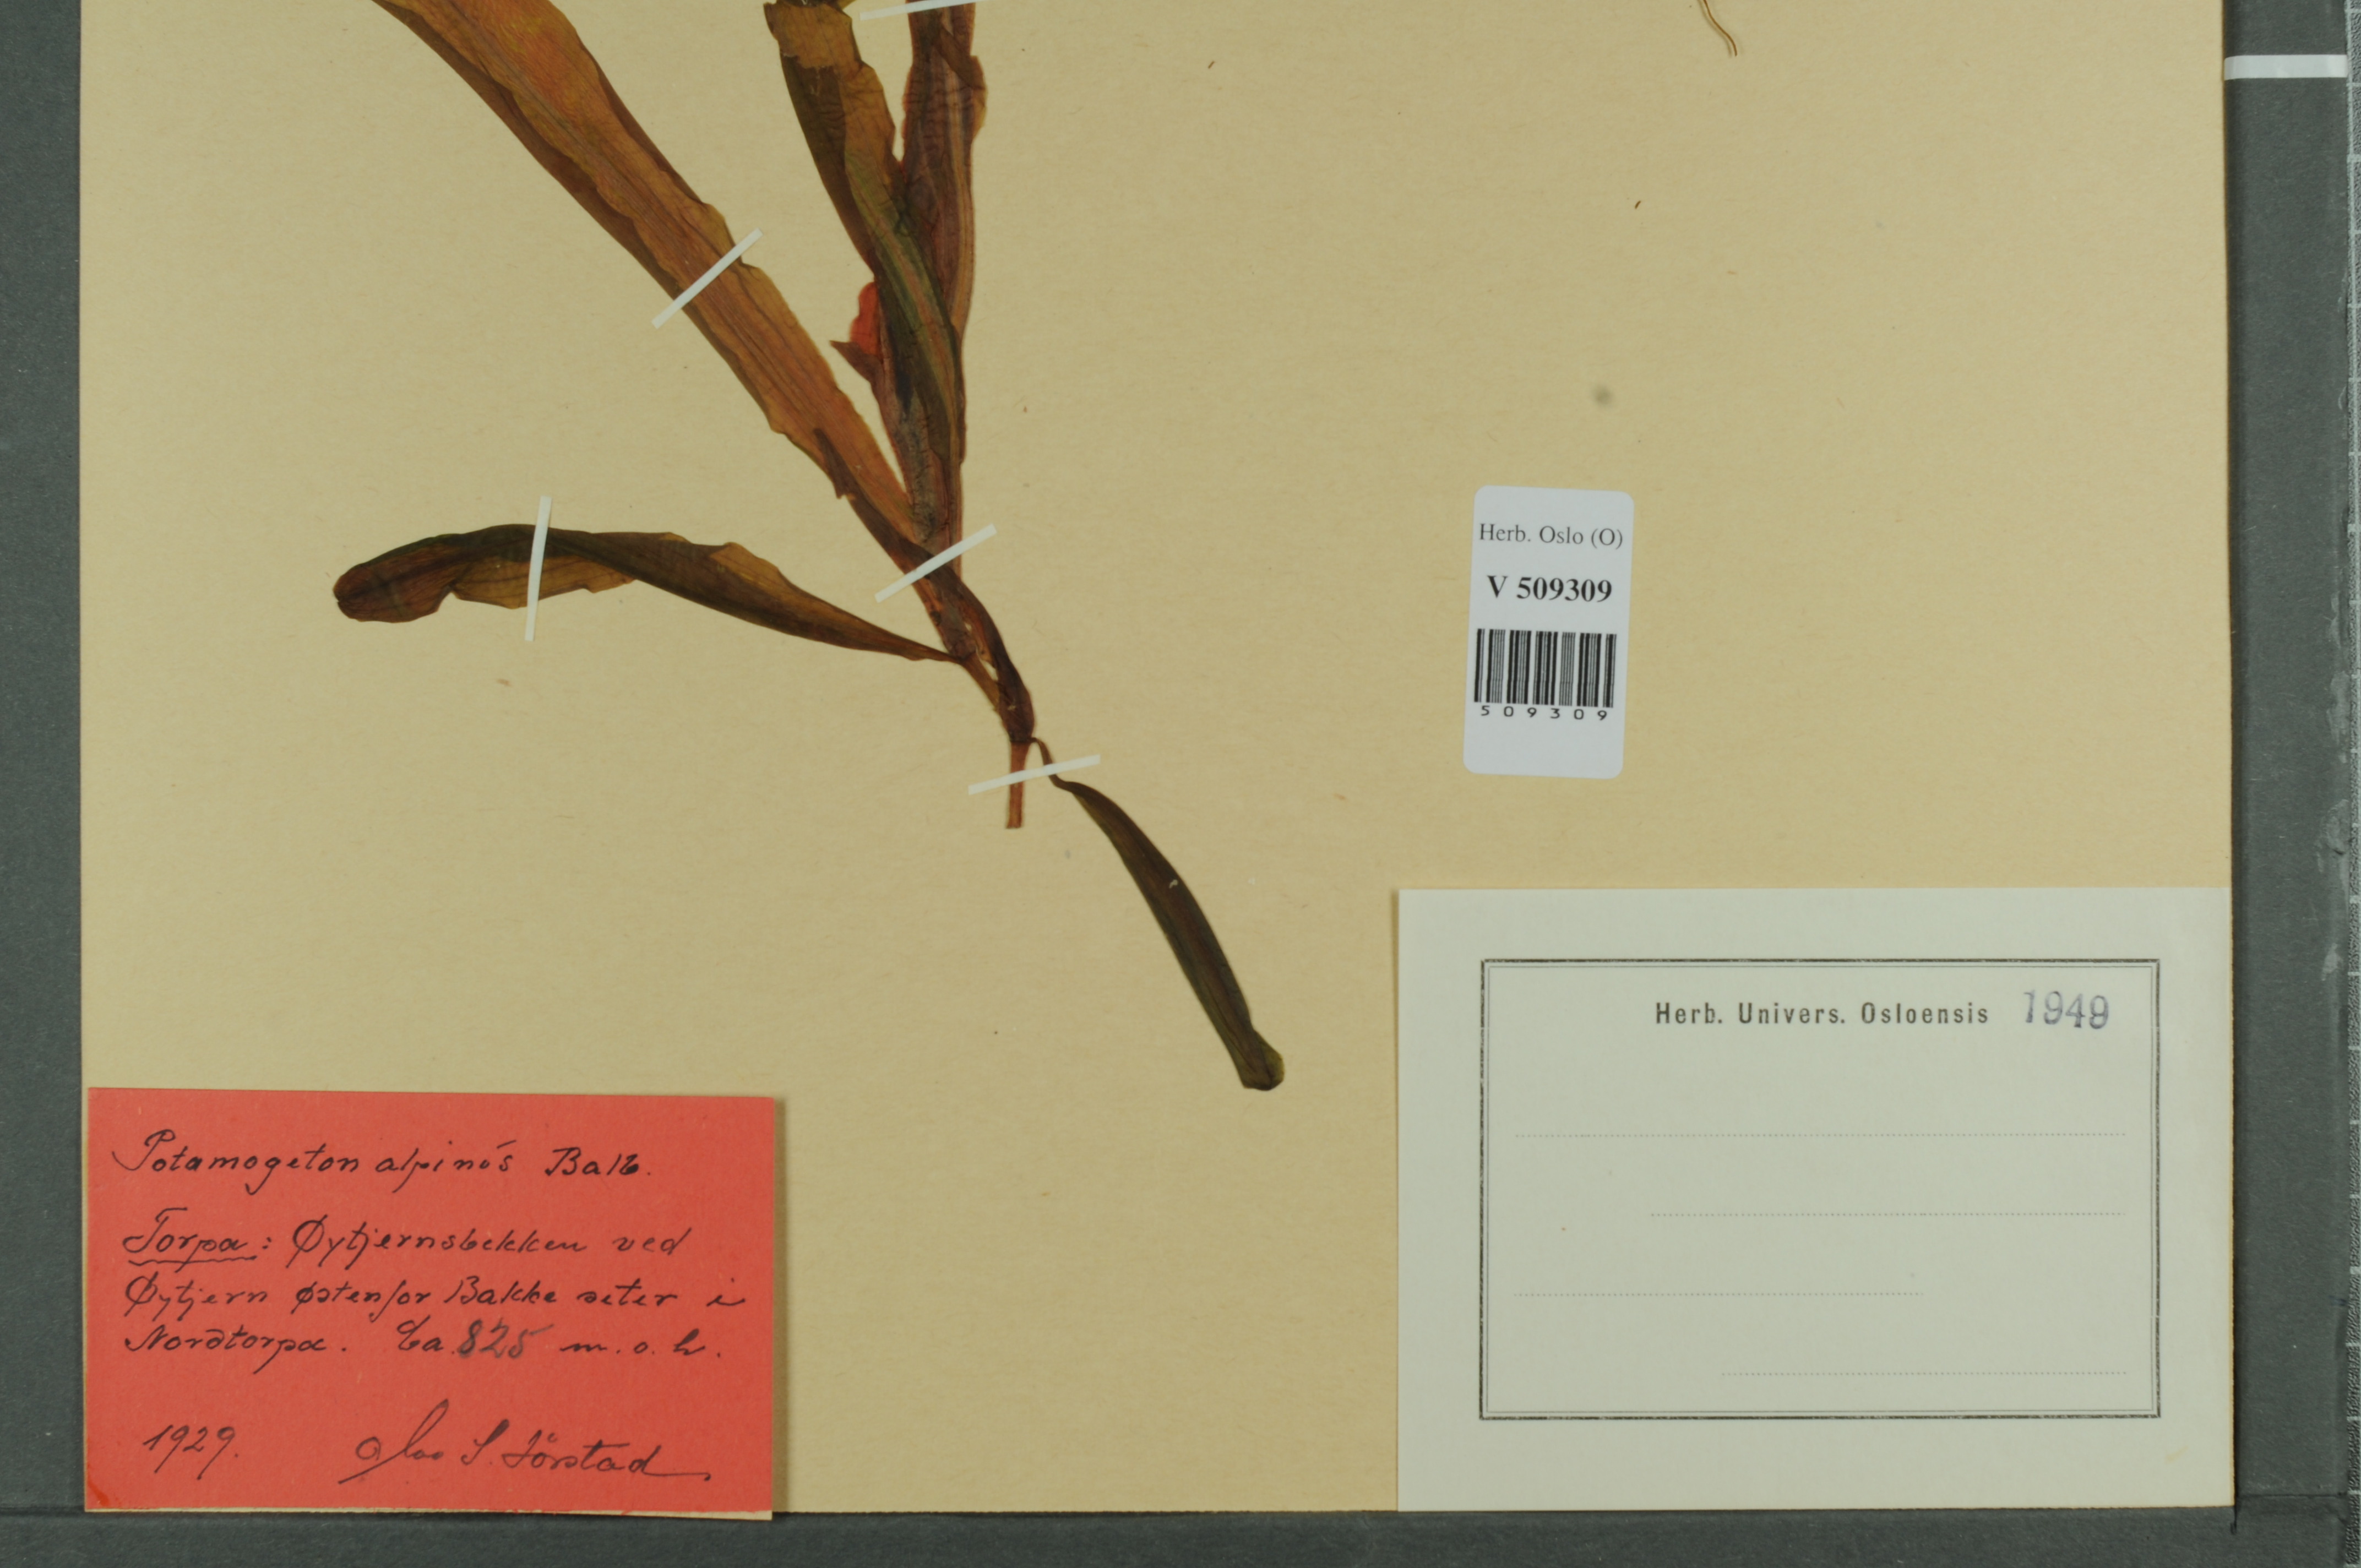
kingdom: Plantae
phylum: Tracheophyta
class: Liliopsida
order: Alismatales
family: Potamogetonaceae
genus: Potamogeton
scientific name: Potamogeton alpinus
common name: Red pondweed
